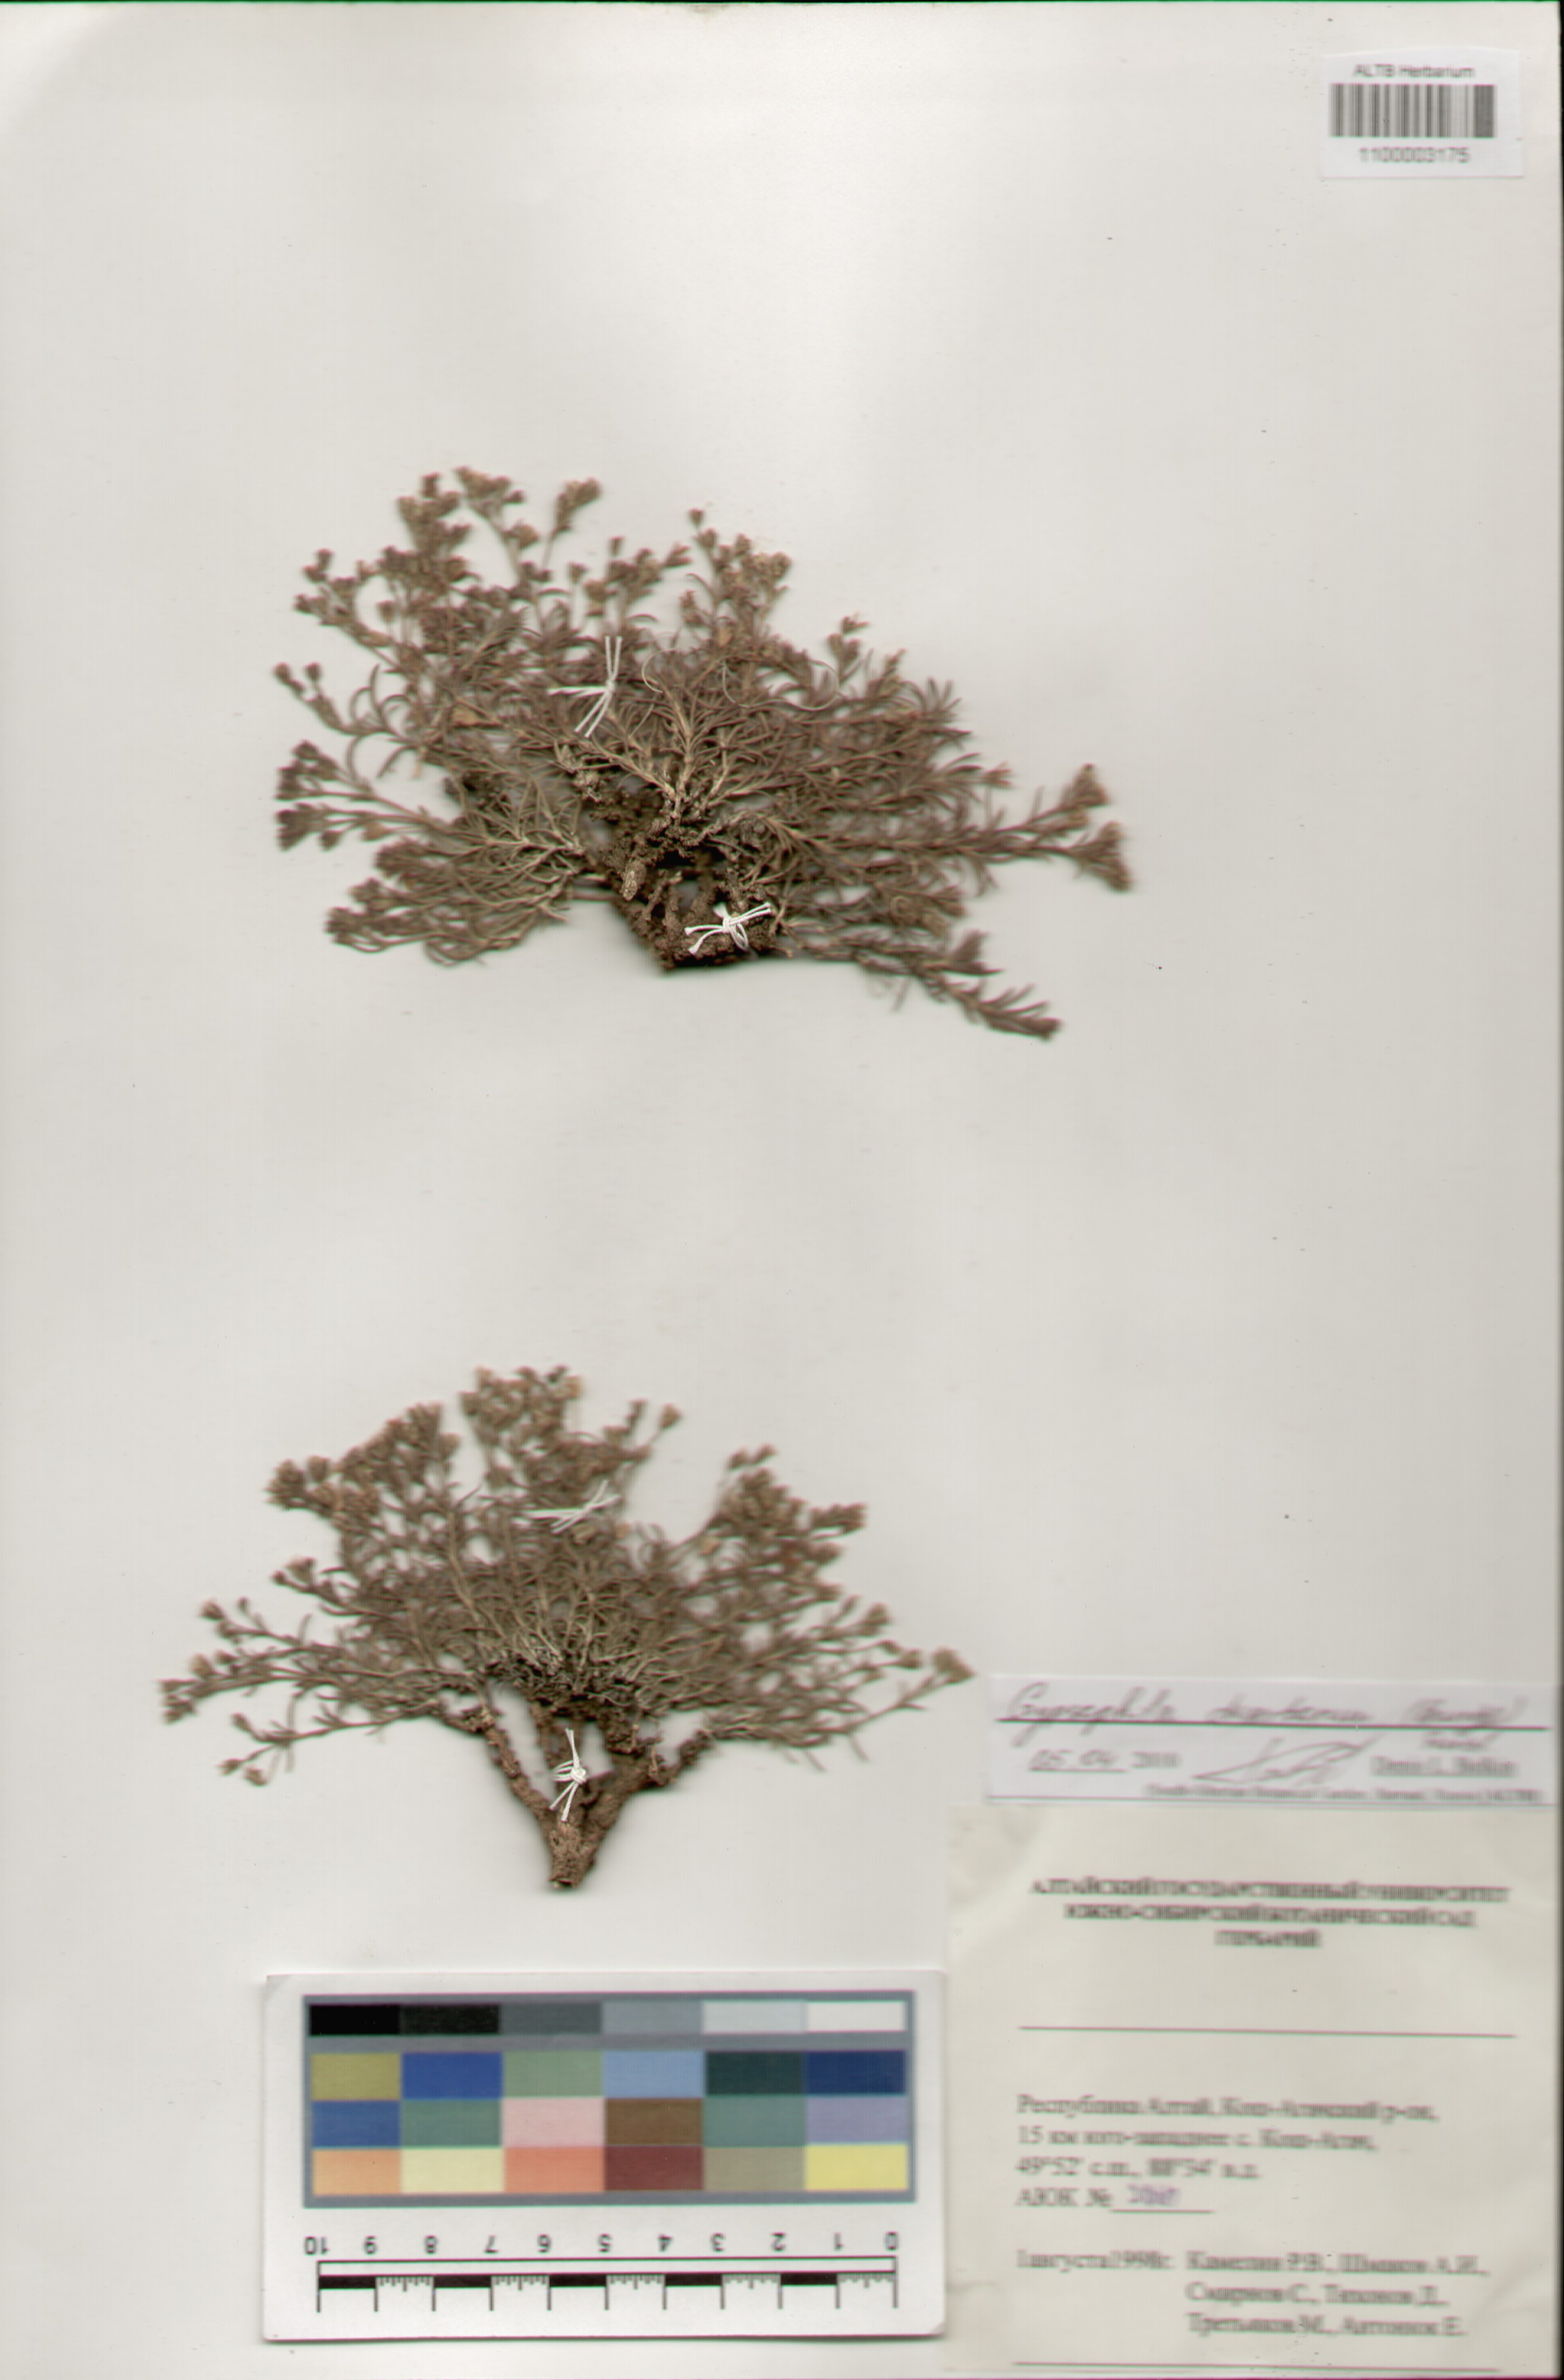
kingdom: Plantae
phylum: Tracheophyta
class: Magnoliopsida
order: Caryophyllales
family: Caryophyllaceae
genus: Heterochroa
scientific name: Heterochroa desertorum
